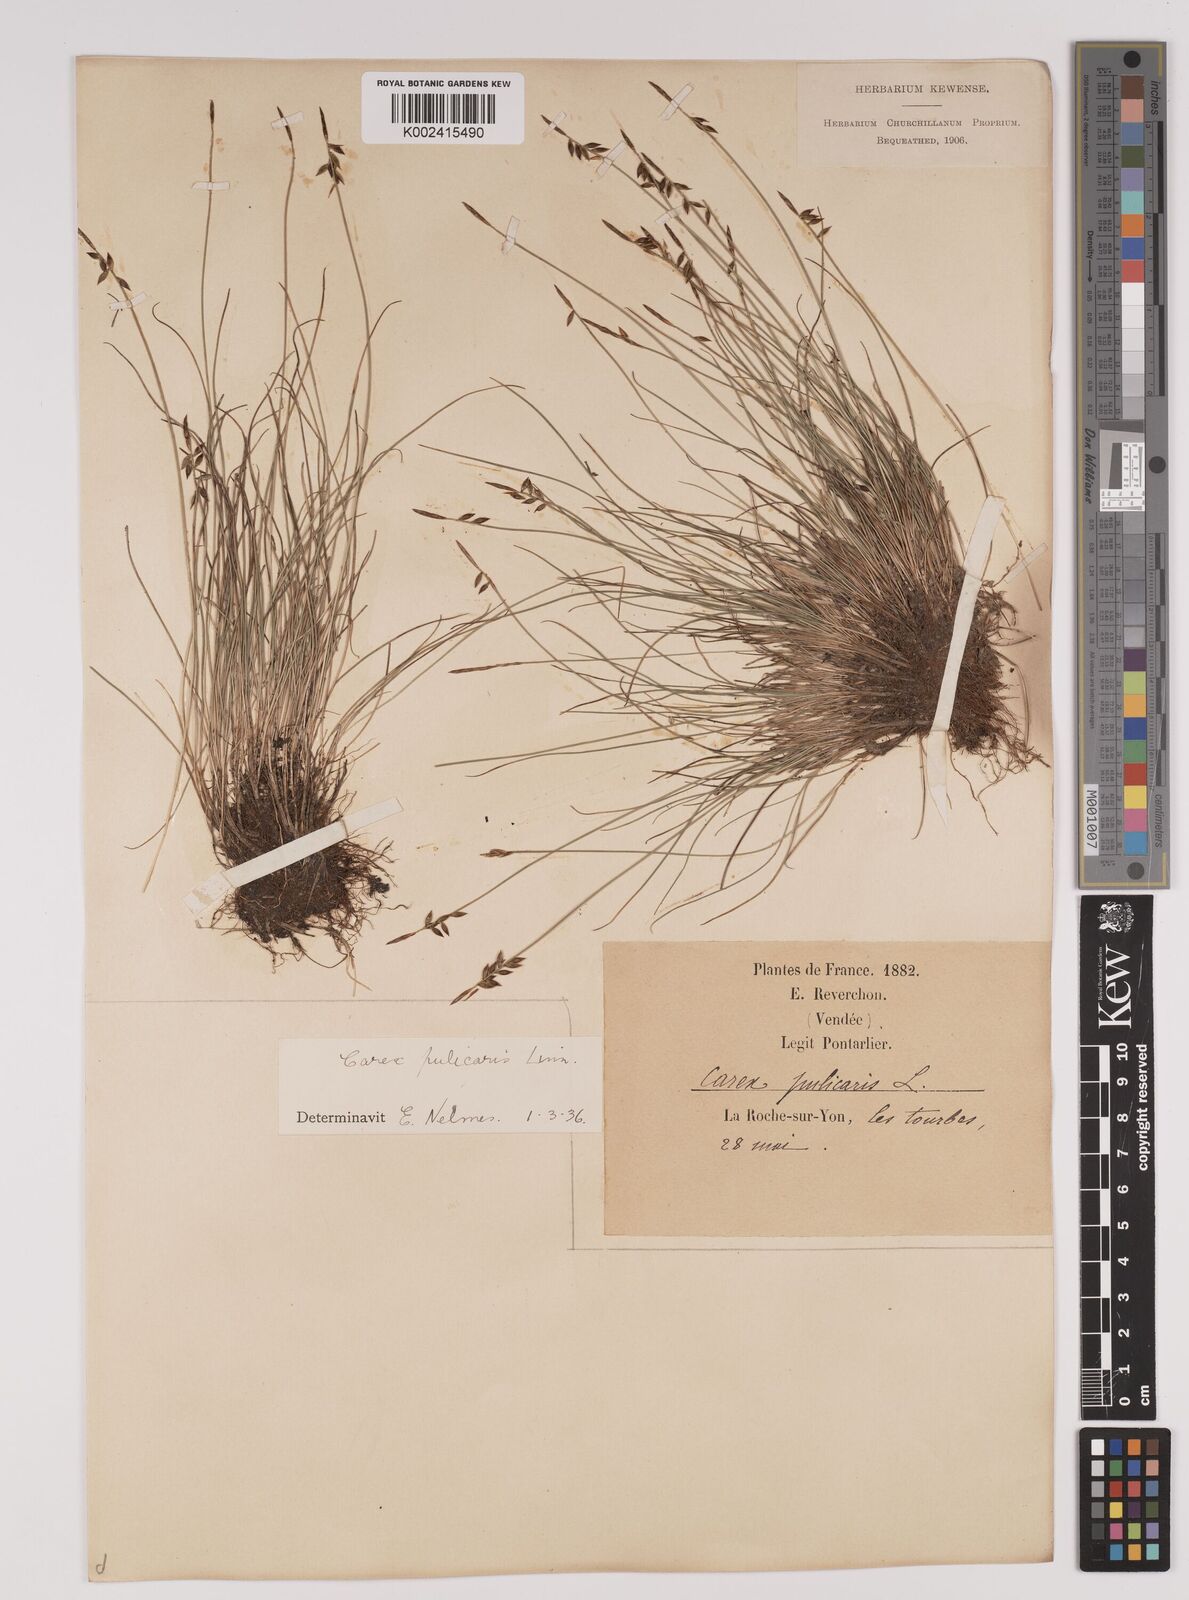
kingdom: Plantae
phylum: Tracheophyta
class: Liliopsida
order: Poales
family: Cyperaceae
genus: Carex
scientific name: Carex pulicaris
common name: Flea sedge
